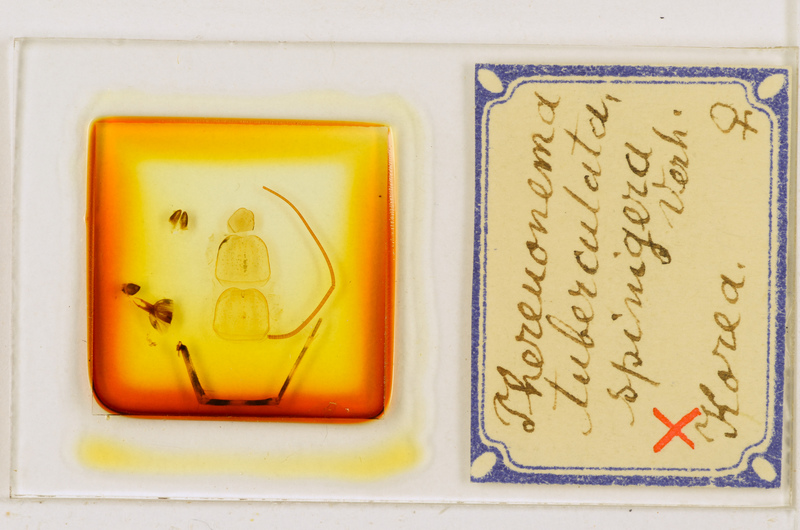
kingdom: Animalia
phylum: Arthropoda
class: Chilopoda
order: Scutigeromorpha
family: Scutigeridae
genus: Thereuonema
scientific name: Thereuonema tuberculata
